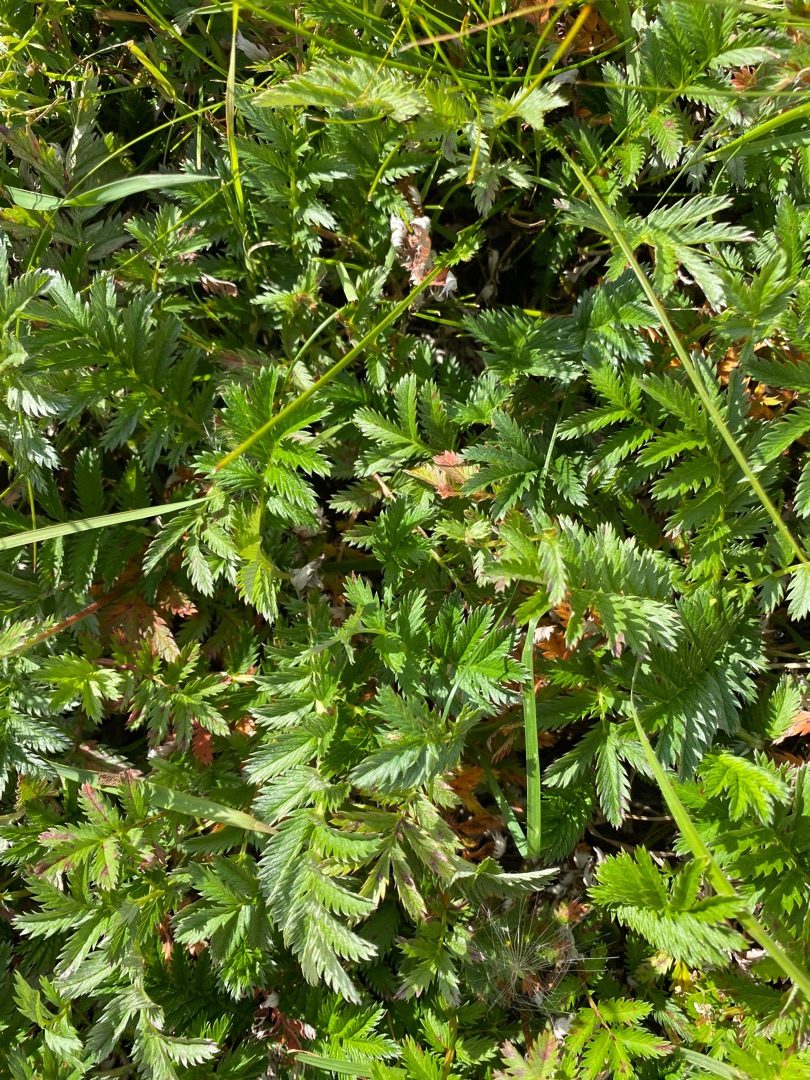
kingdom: Plantae
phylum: Tracheophyta
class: Magnoliopsida
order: Rosales
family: Rosaceae
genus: Argentina
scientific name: Argentina anserina
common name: Gåsepotentil
